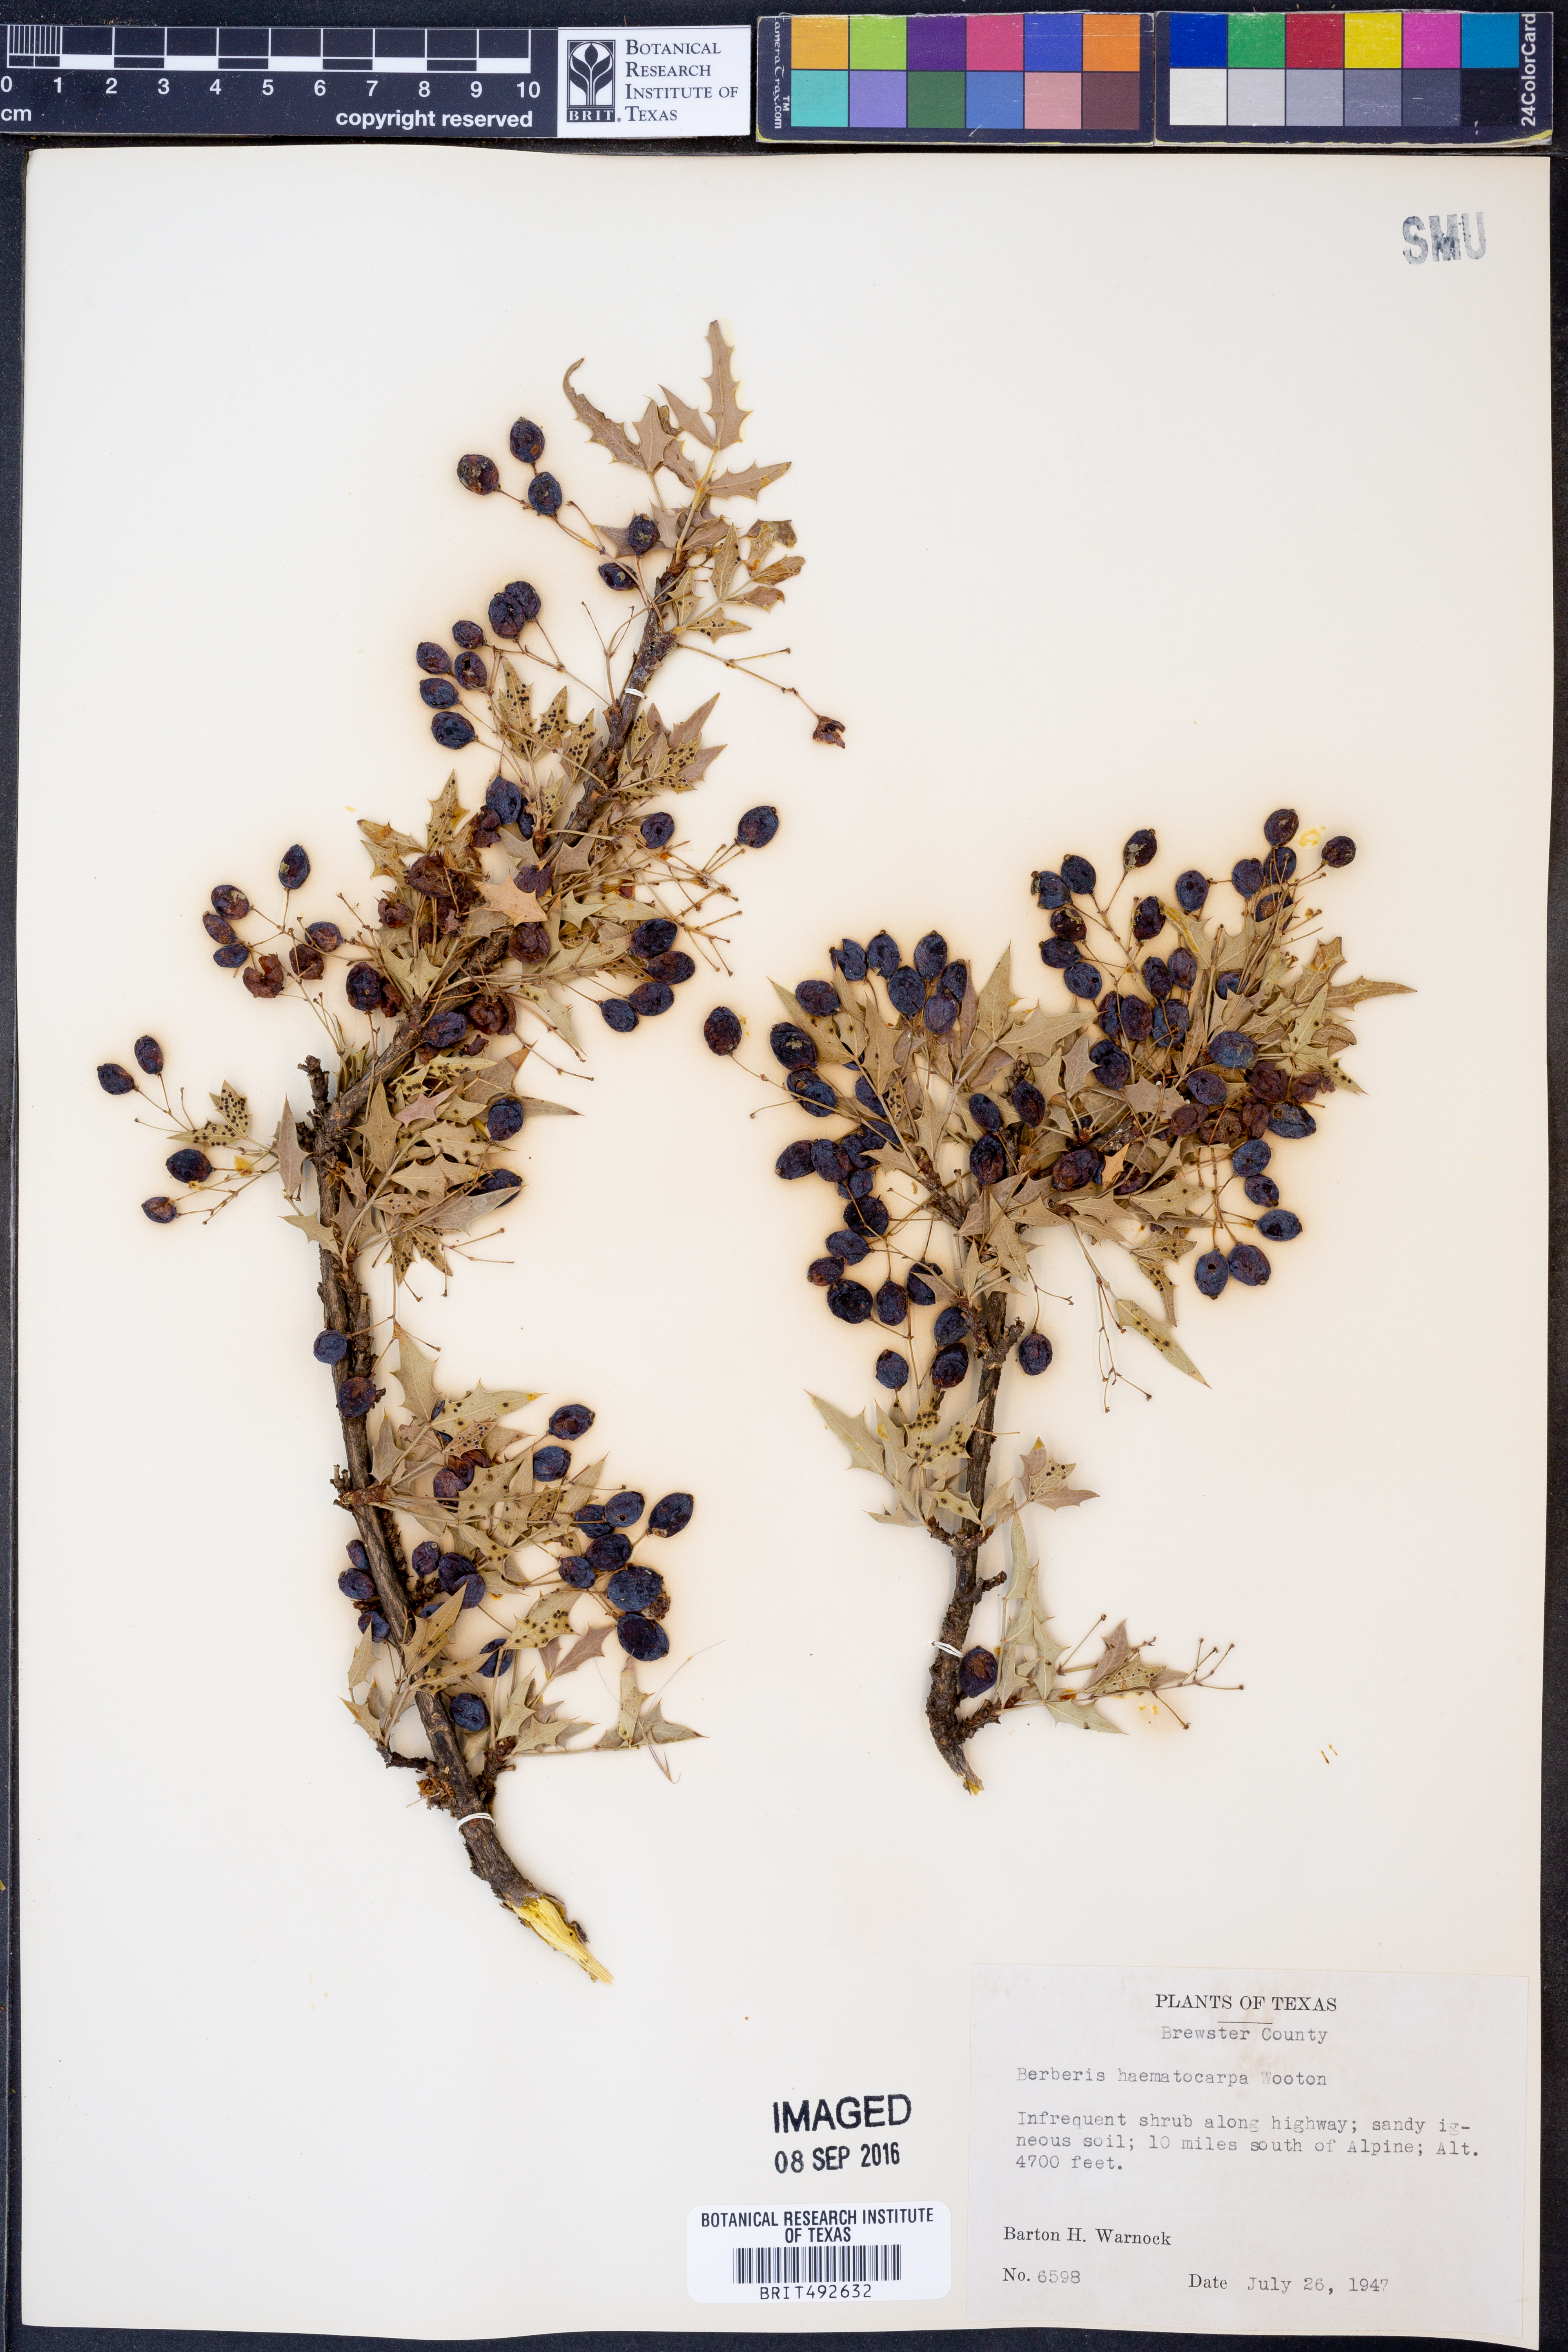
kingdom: Plantae
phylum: Tracheophyta
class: Magnoliopsida
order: Ranunculales
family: Berberidaceae
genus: Alloberberis
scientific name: Alloberberis haematocarpa
